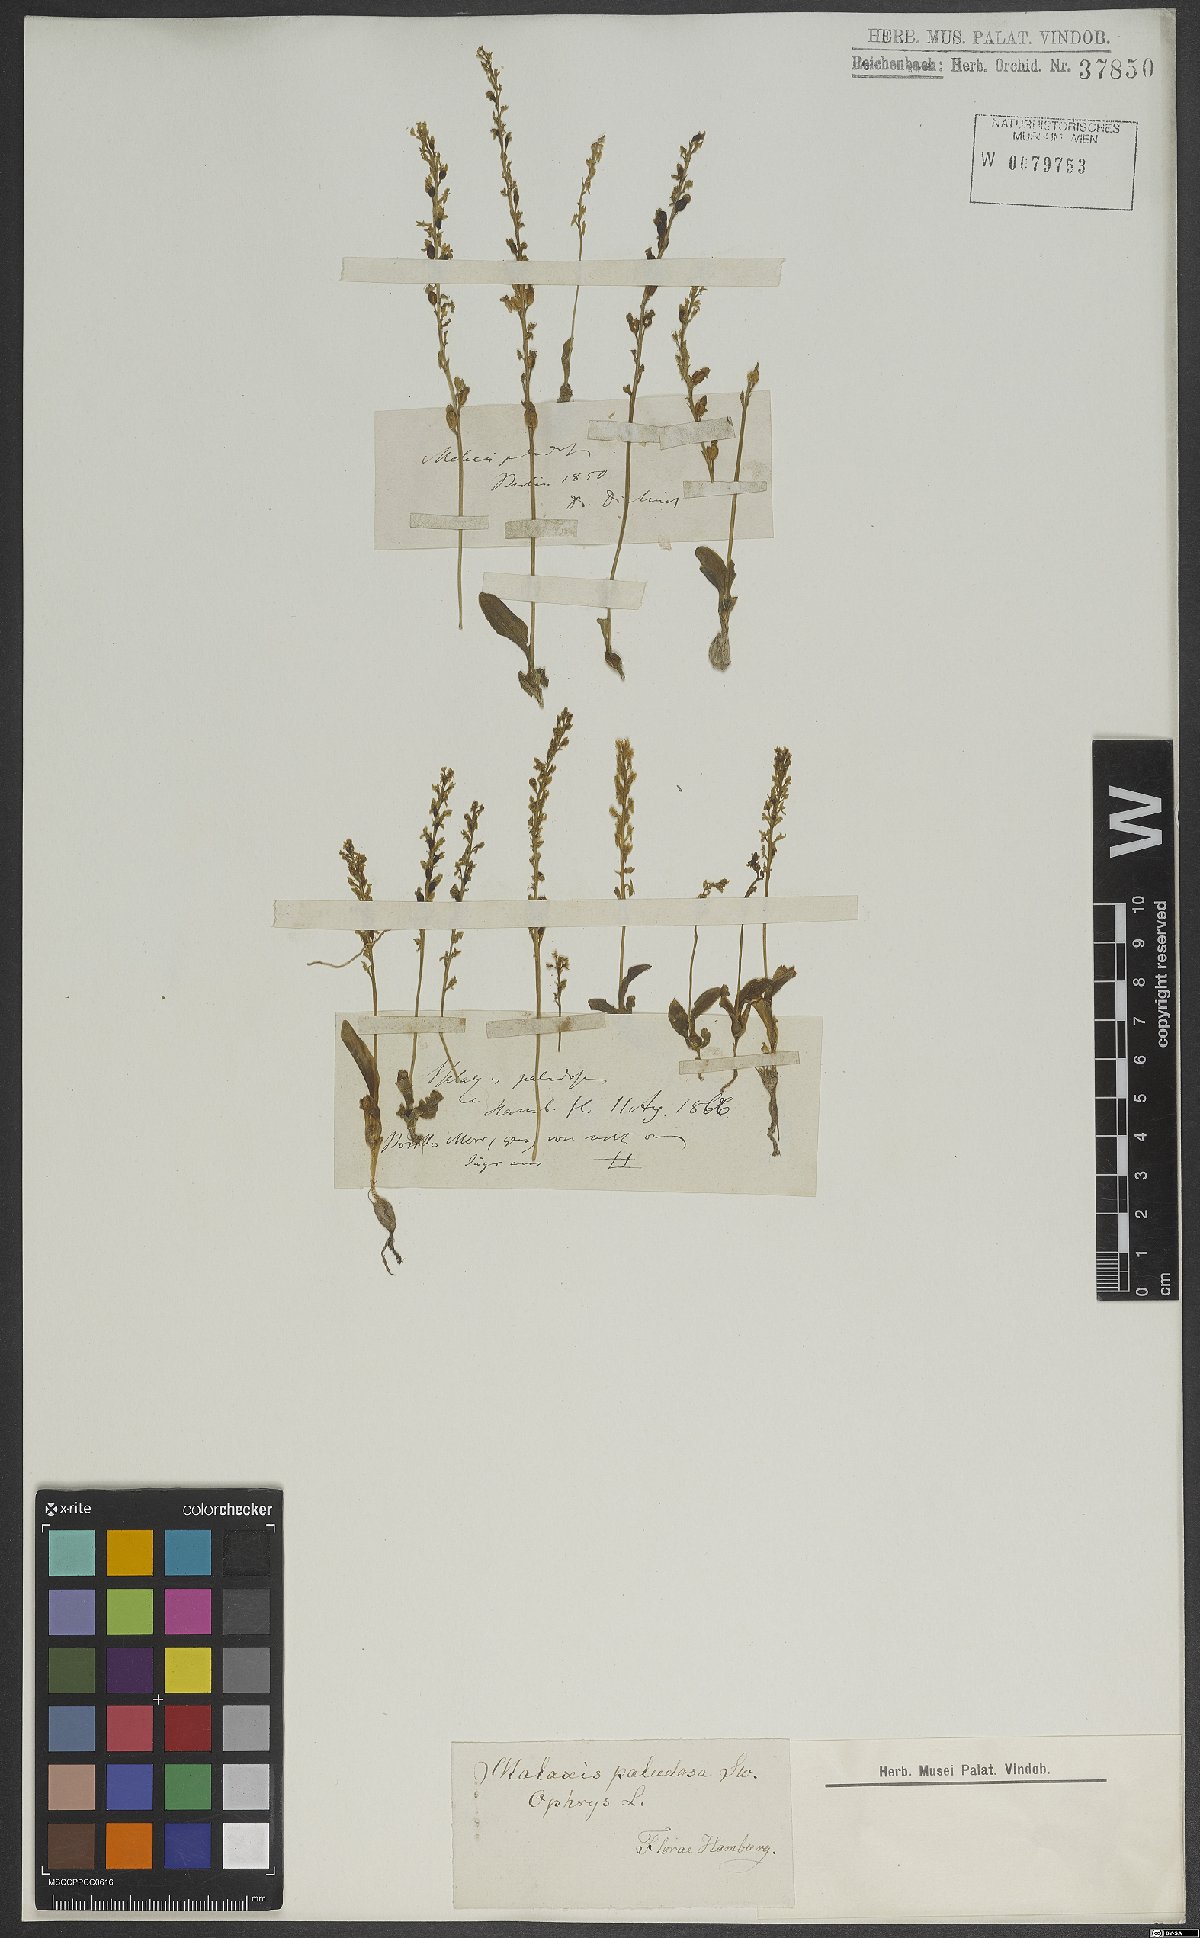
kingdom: Plantae
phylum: Tracheophyta
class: Liliopsida
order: Asparagales
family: Orchidaceae
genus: Hammarbya
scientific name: Hammarbya paludosa
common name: Bog orchid
